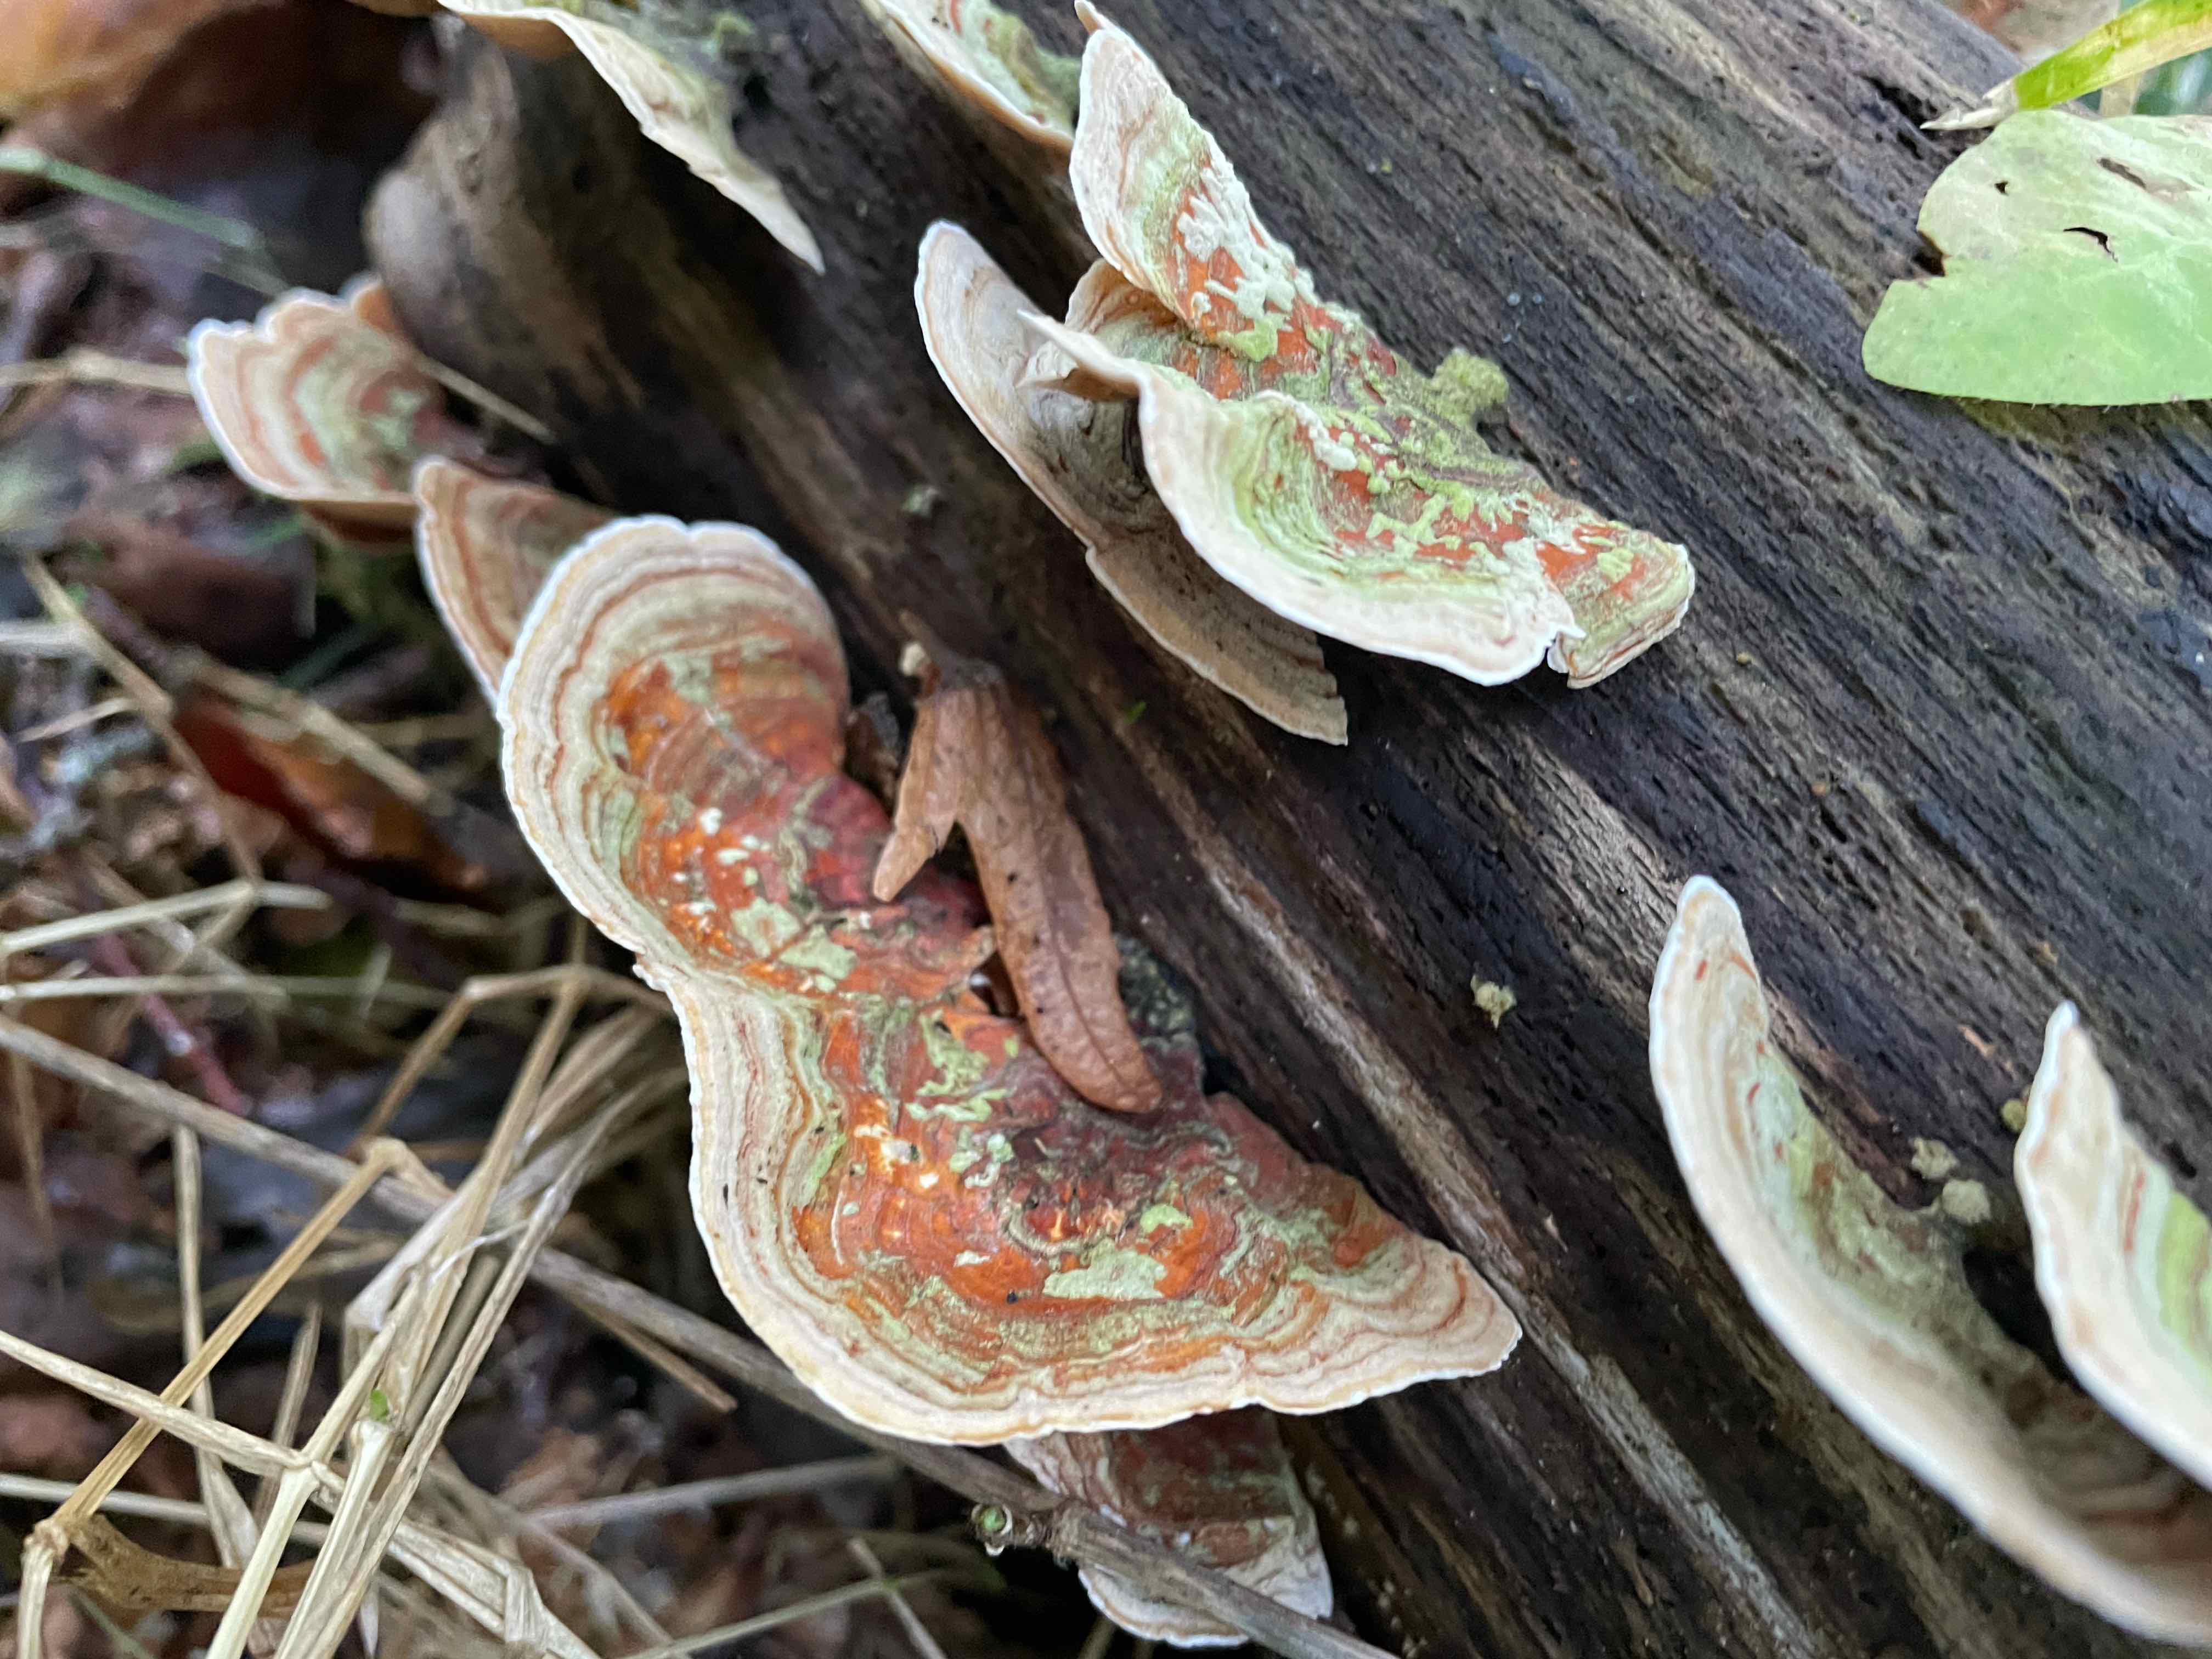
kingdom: Fungi
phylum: Basidiomycota
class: Agaricomycetes
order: Russulales
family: Stereaceae
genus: Stereum
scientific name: Stereum subtomentosum
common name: smuk lædersvamp
